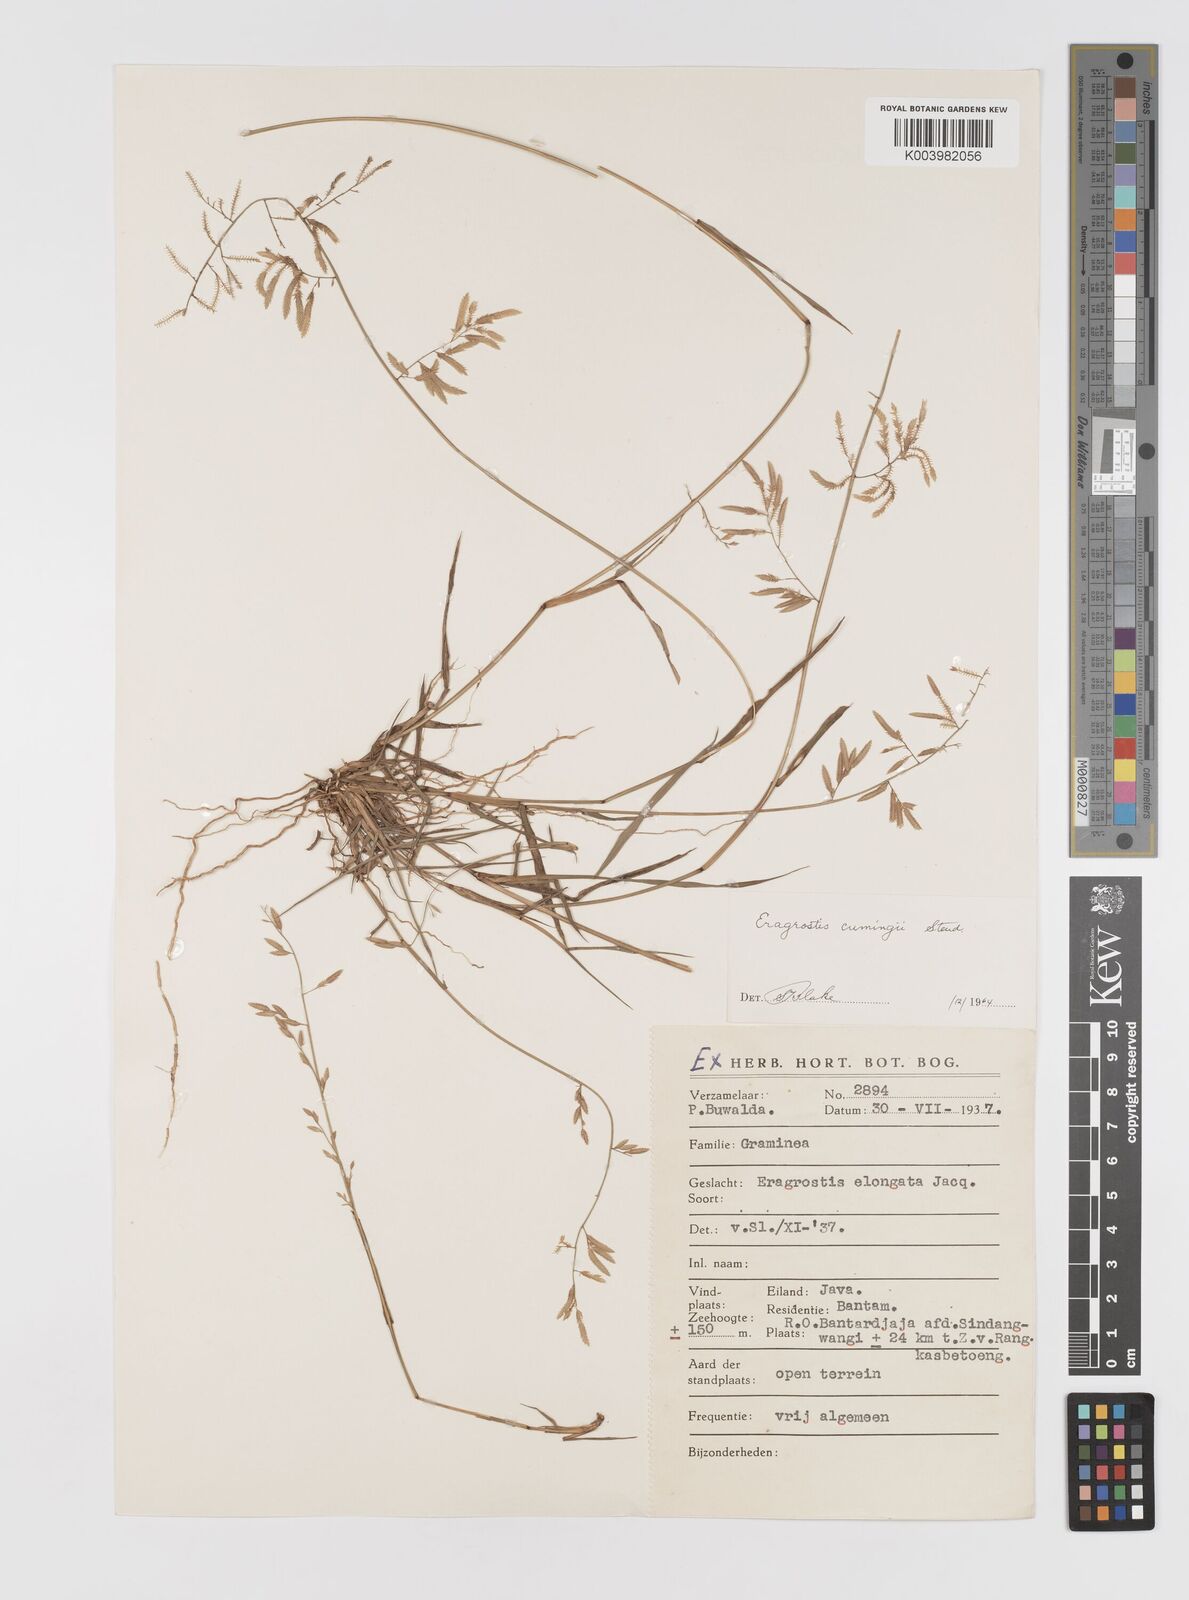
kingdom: Plantae
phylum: Tracheophyta
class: Liliopsida
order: Poales
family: Poaceae
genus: Eragrostis
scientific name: Eragrostis cumingii
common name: Cuming's lovegrass
